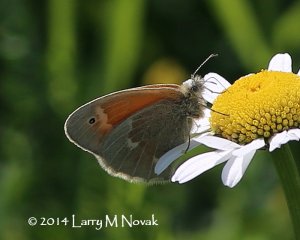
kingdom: Animalia
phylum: Arthropoda
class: Insecta
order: Lepidoptera
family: Nymphalidae
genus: Coenonympha
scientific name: Coenonympha tullia
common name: Large Heath
